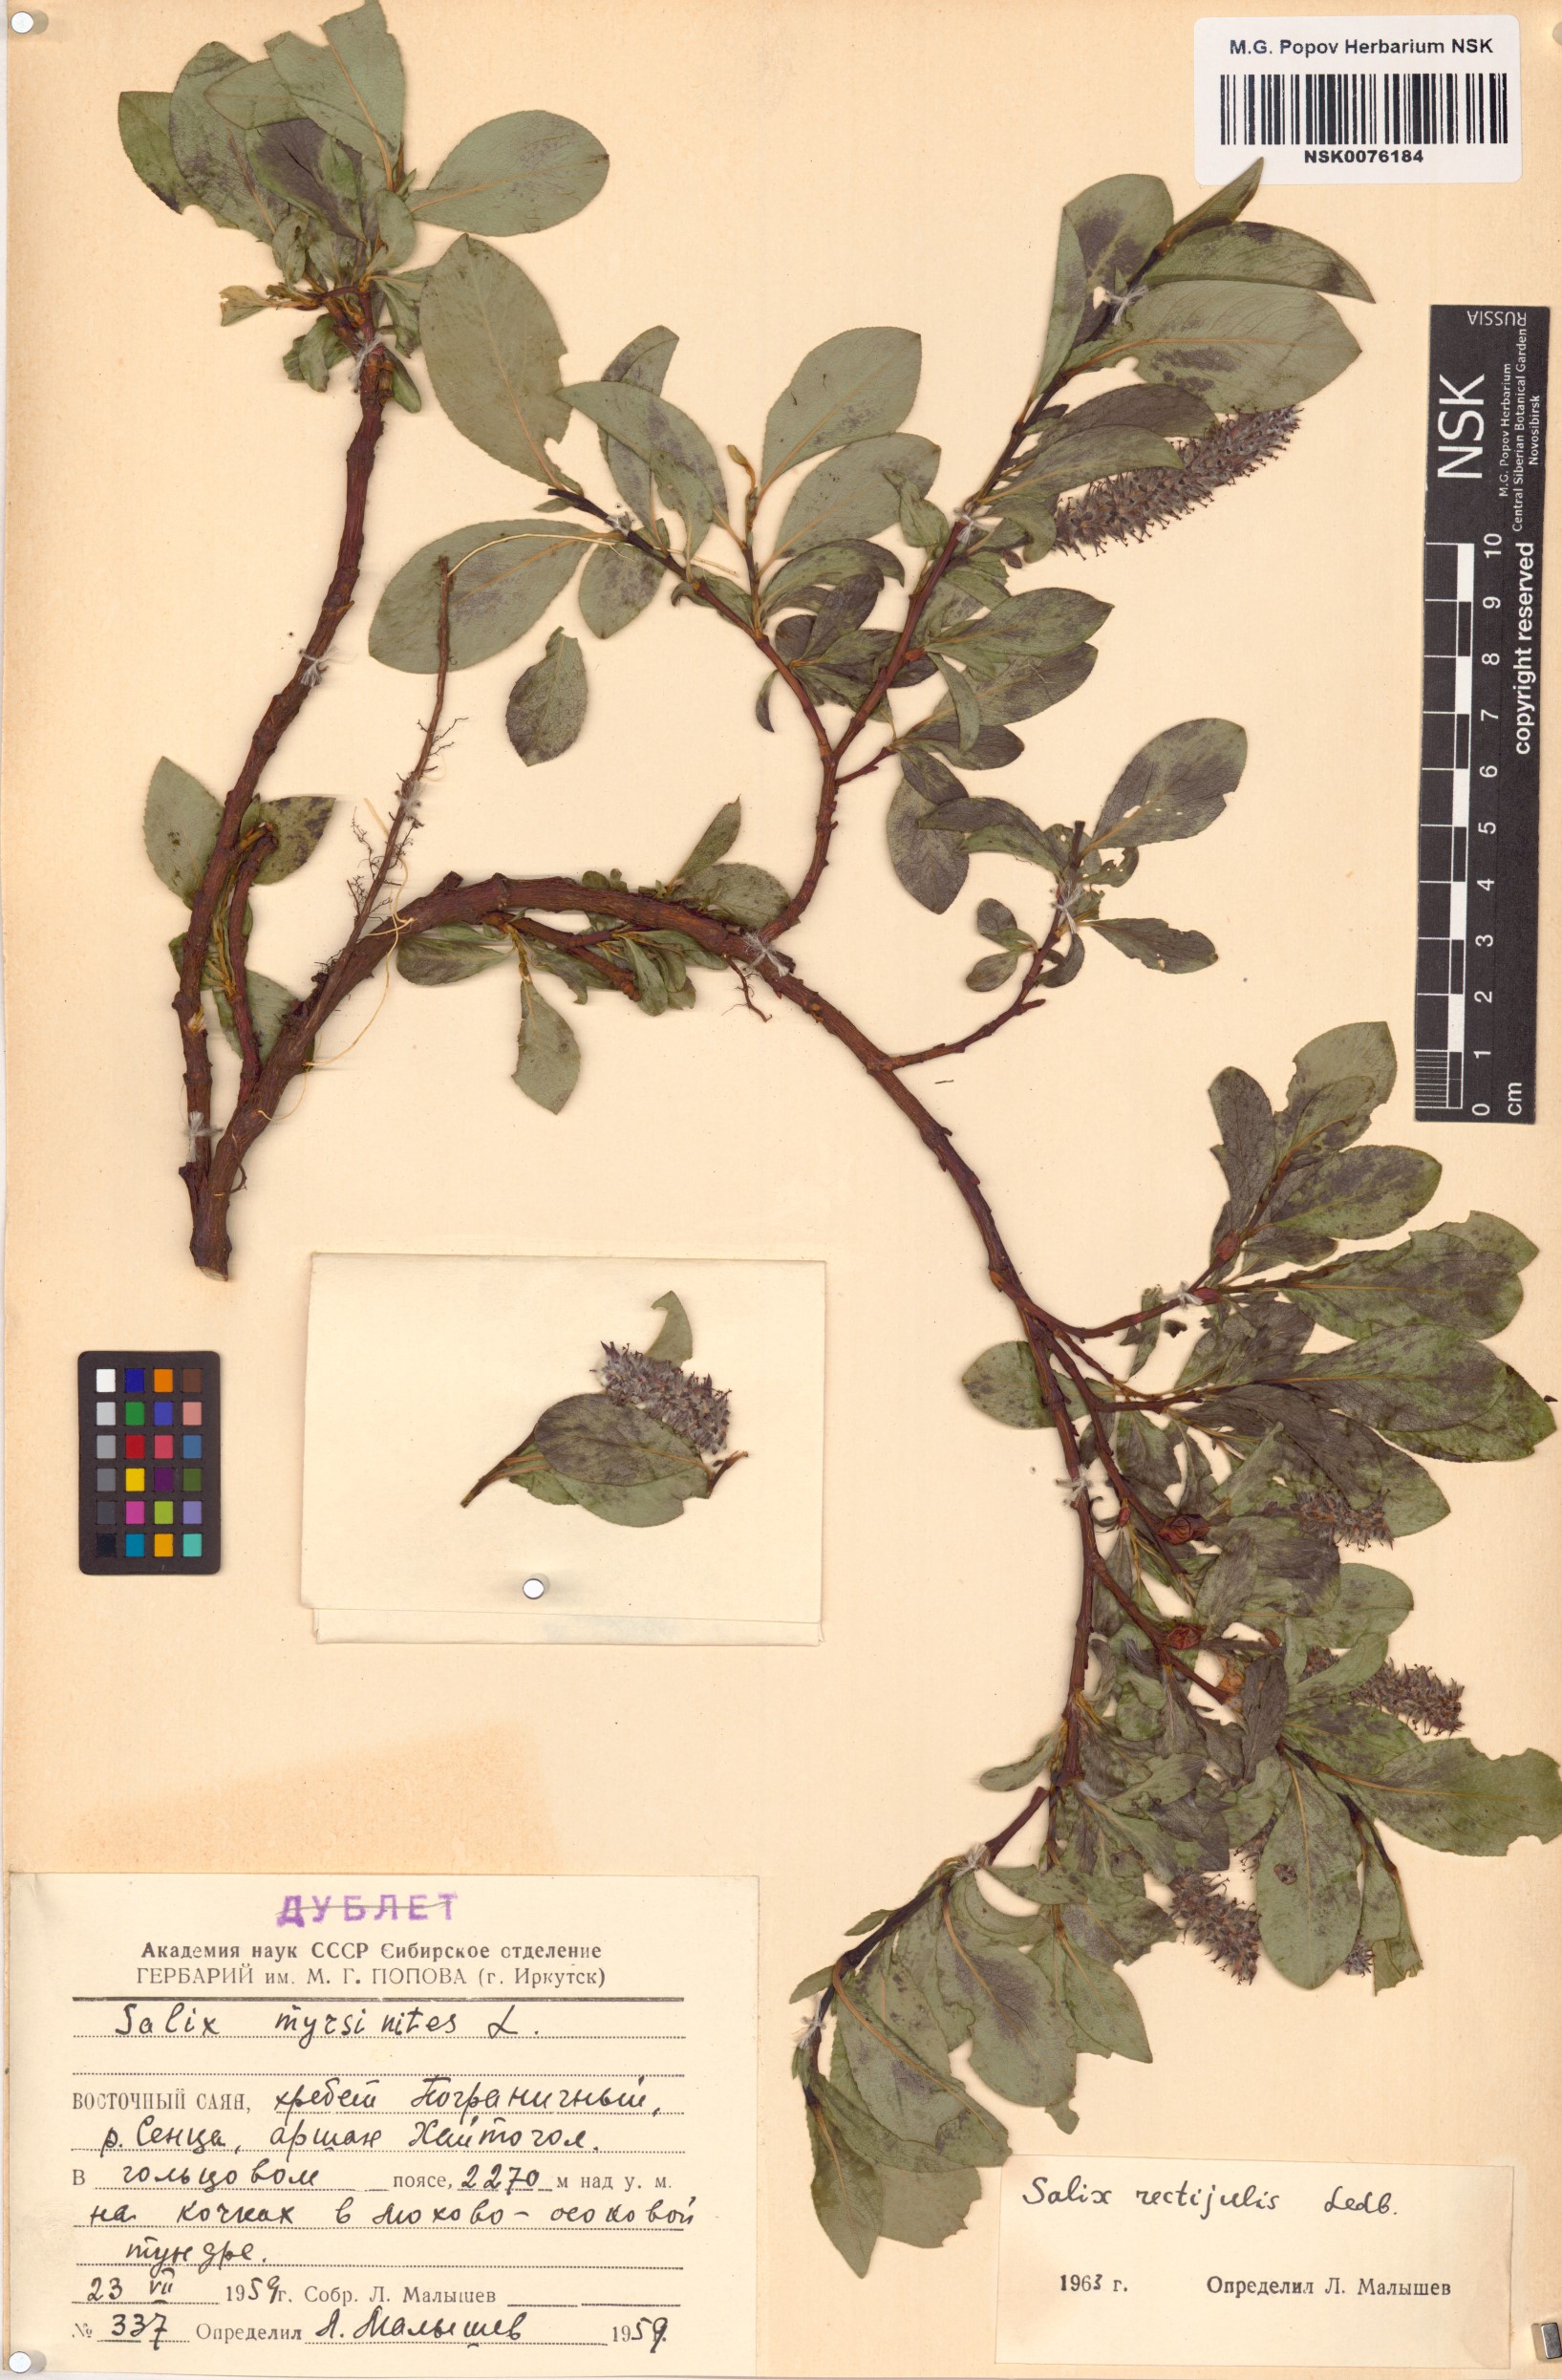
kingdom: Plantae
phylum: Tracheophyta
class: Magnoliopsida
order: Malpighiales
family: Salicaceae
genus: Salix
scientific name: Salix rectijulis
